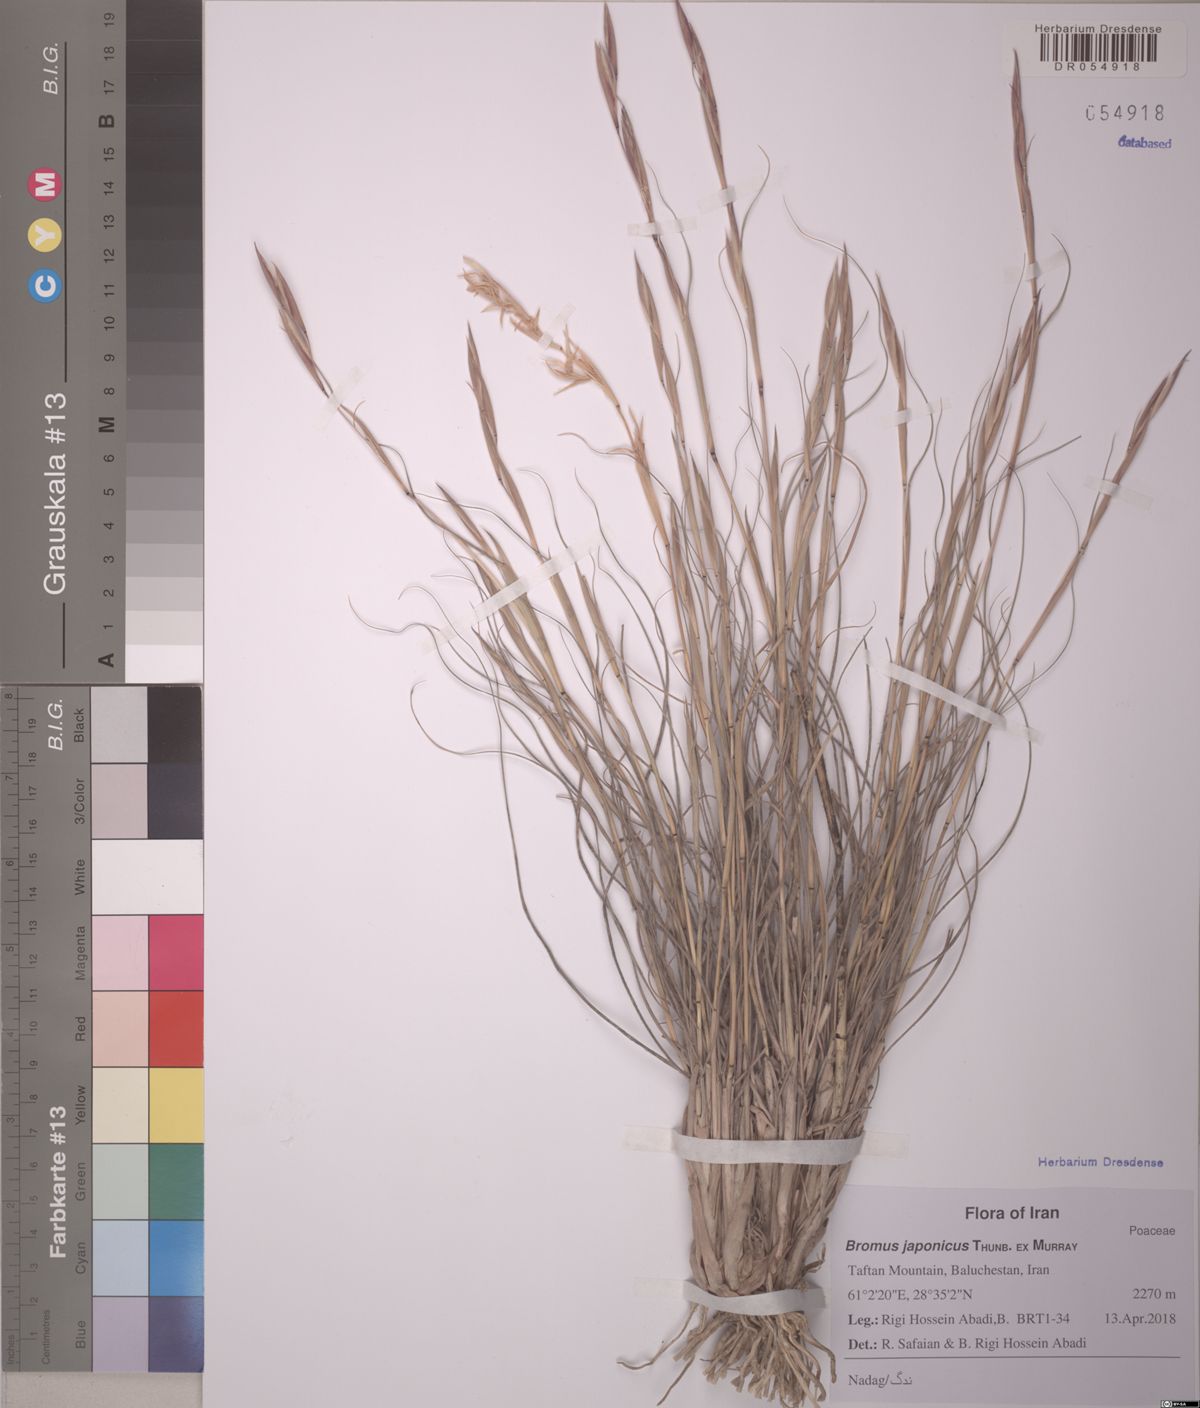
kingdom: Plantae
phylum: Tracheophyta
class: Liliopsida
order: Poales
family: Poaceae
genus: Bromus
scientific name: Bromus japonicus
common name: Japanese brome
